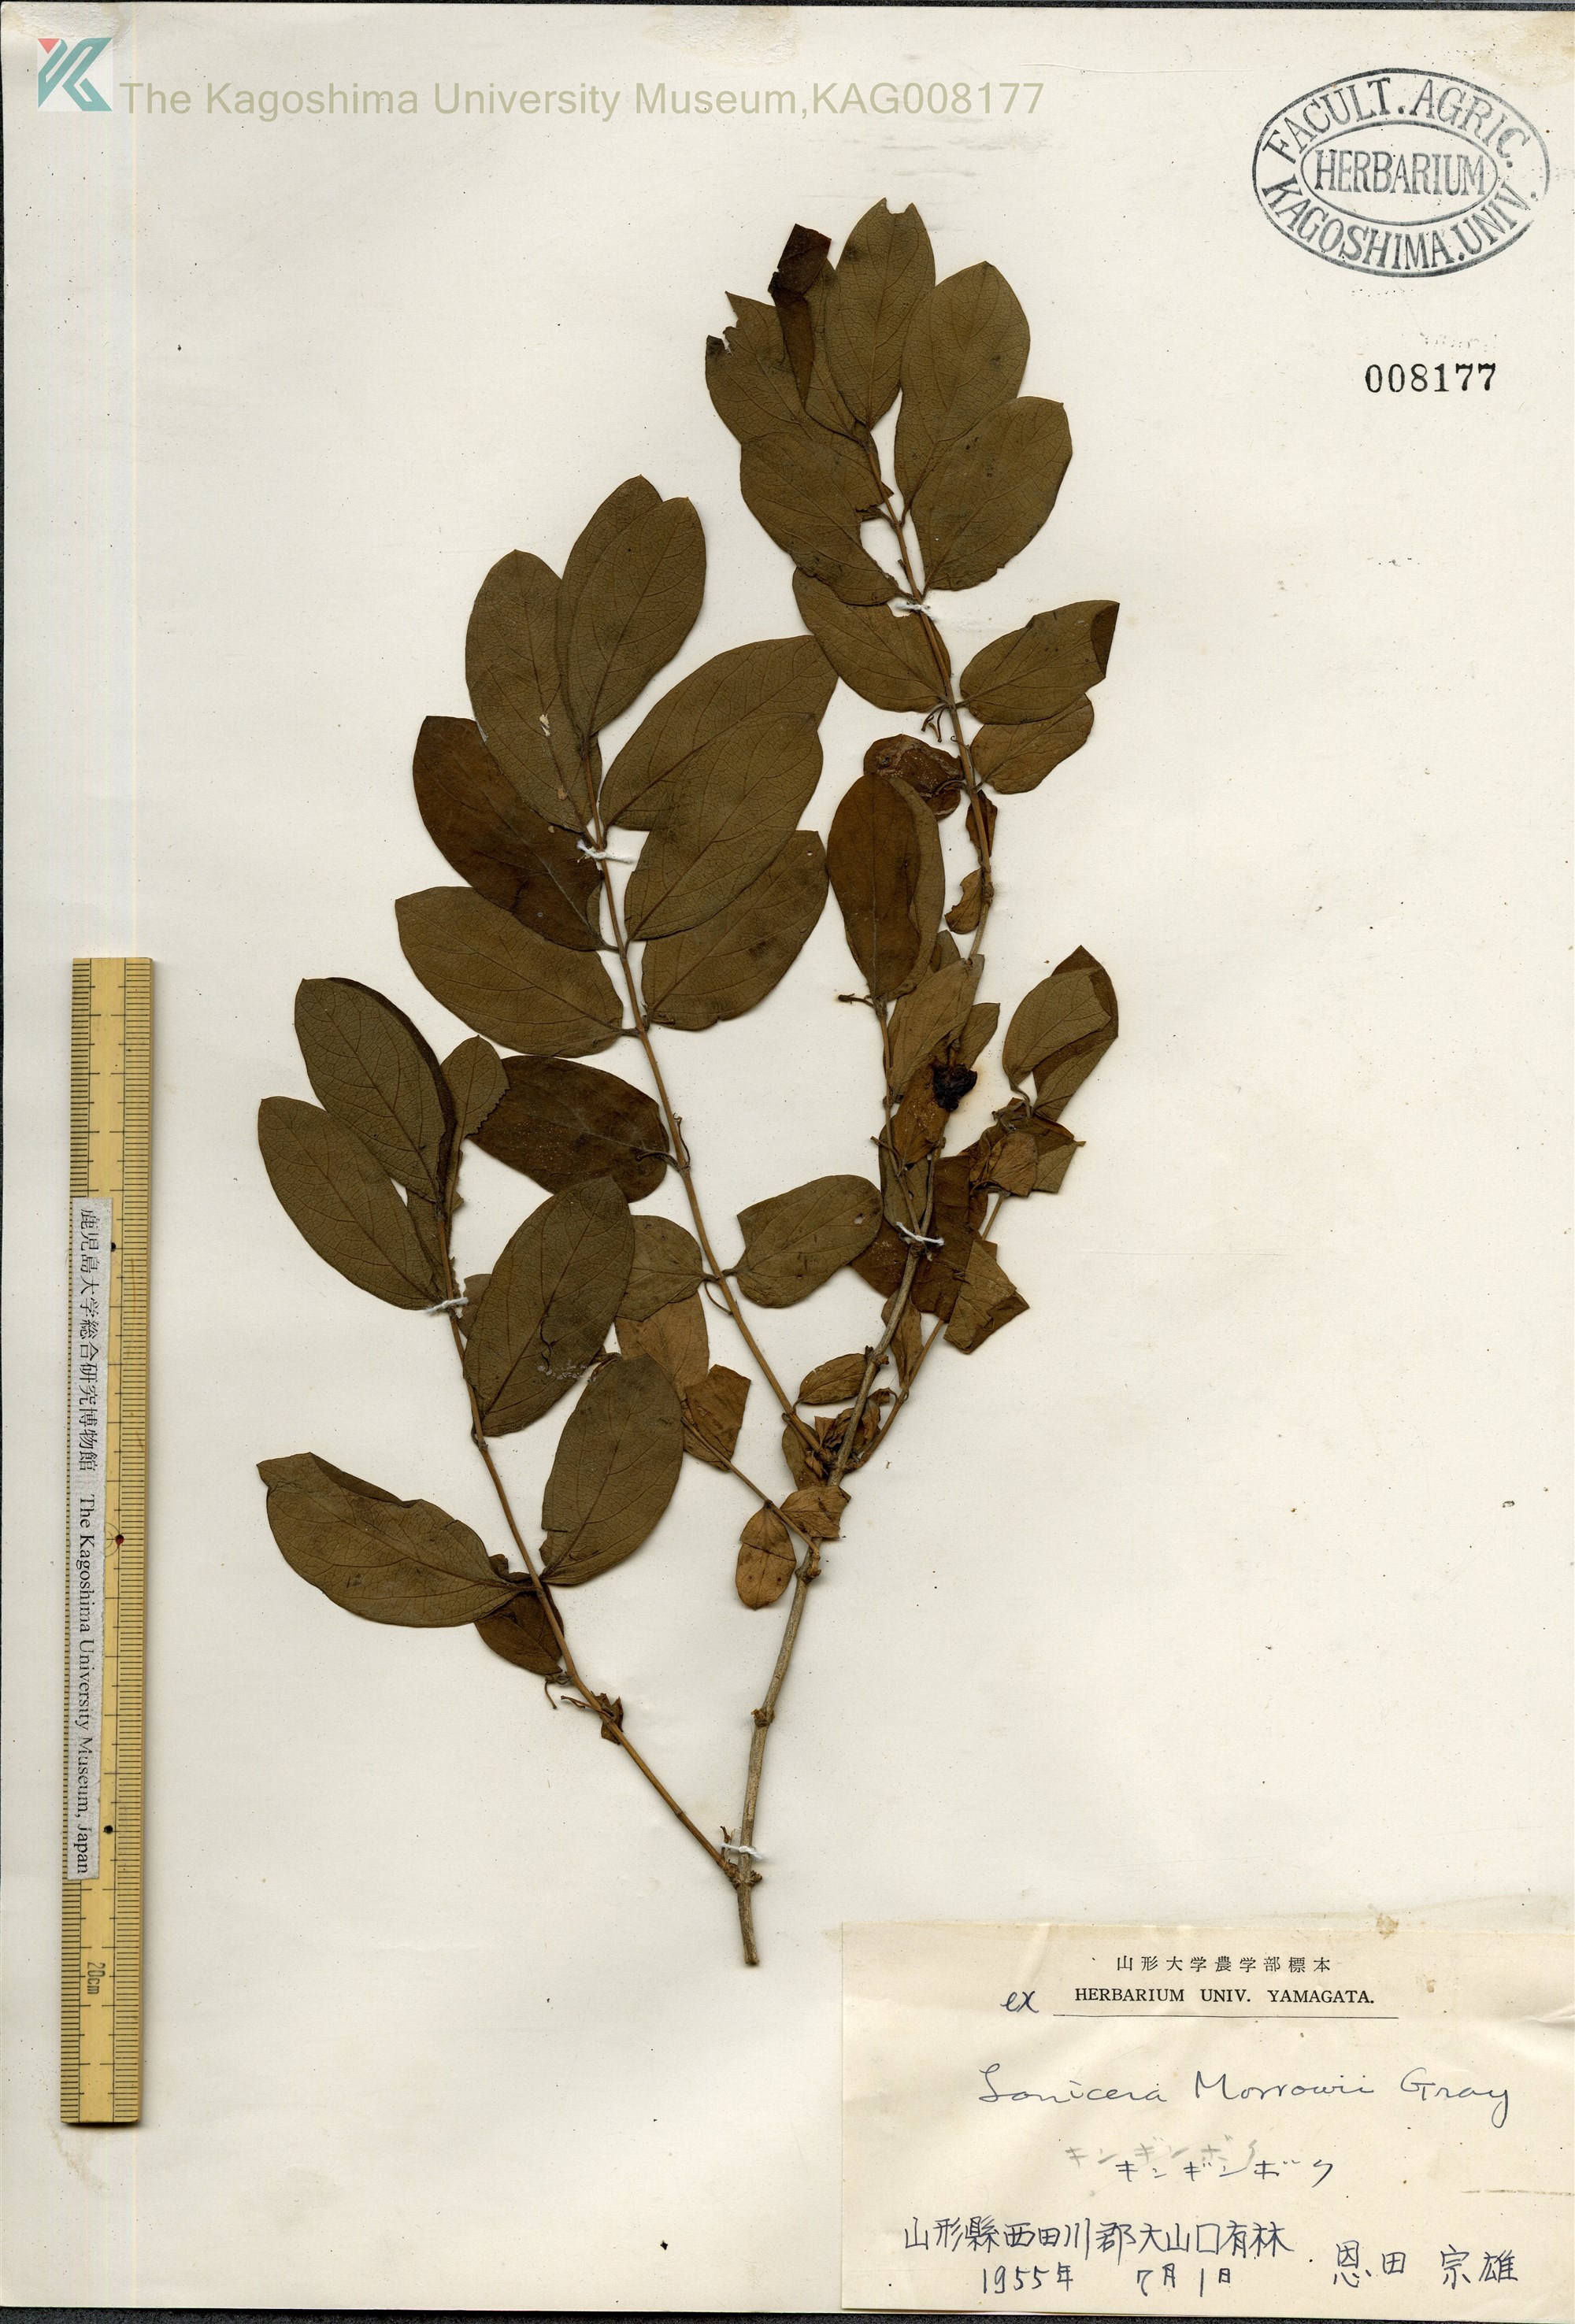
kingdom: Plantae
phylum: Tracheophyta
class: Magnoliopsida
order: Dipsacales
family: Caprifoliaceae
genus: Lonicera
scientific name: Lonicera morrowii
